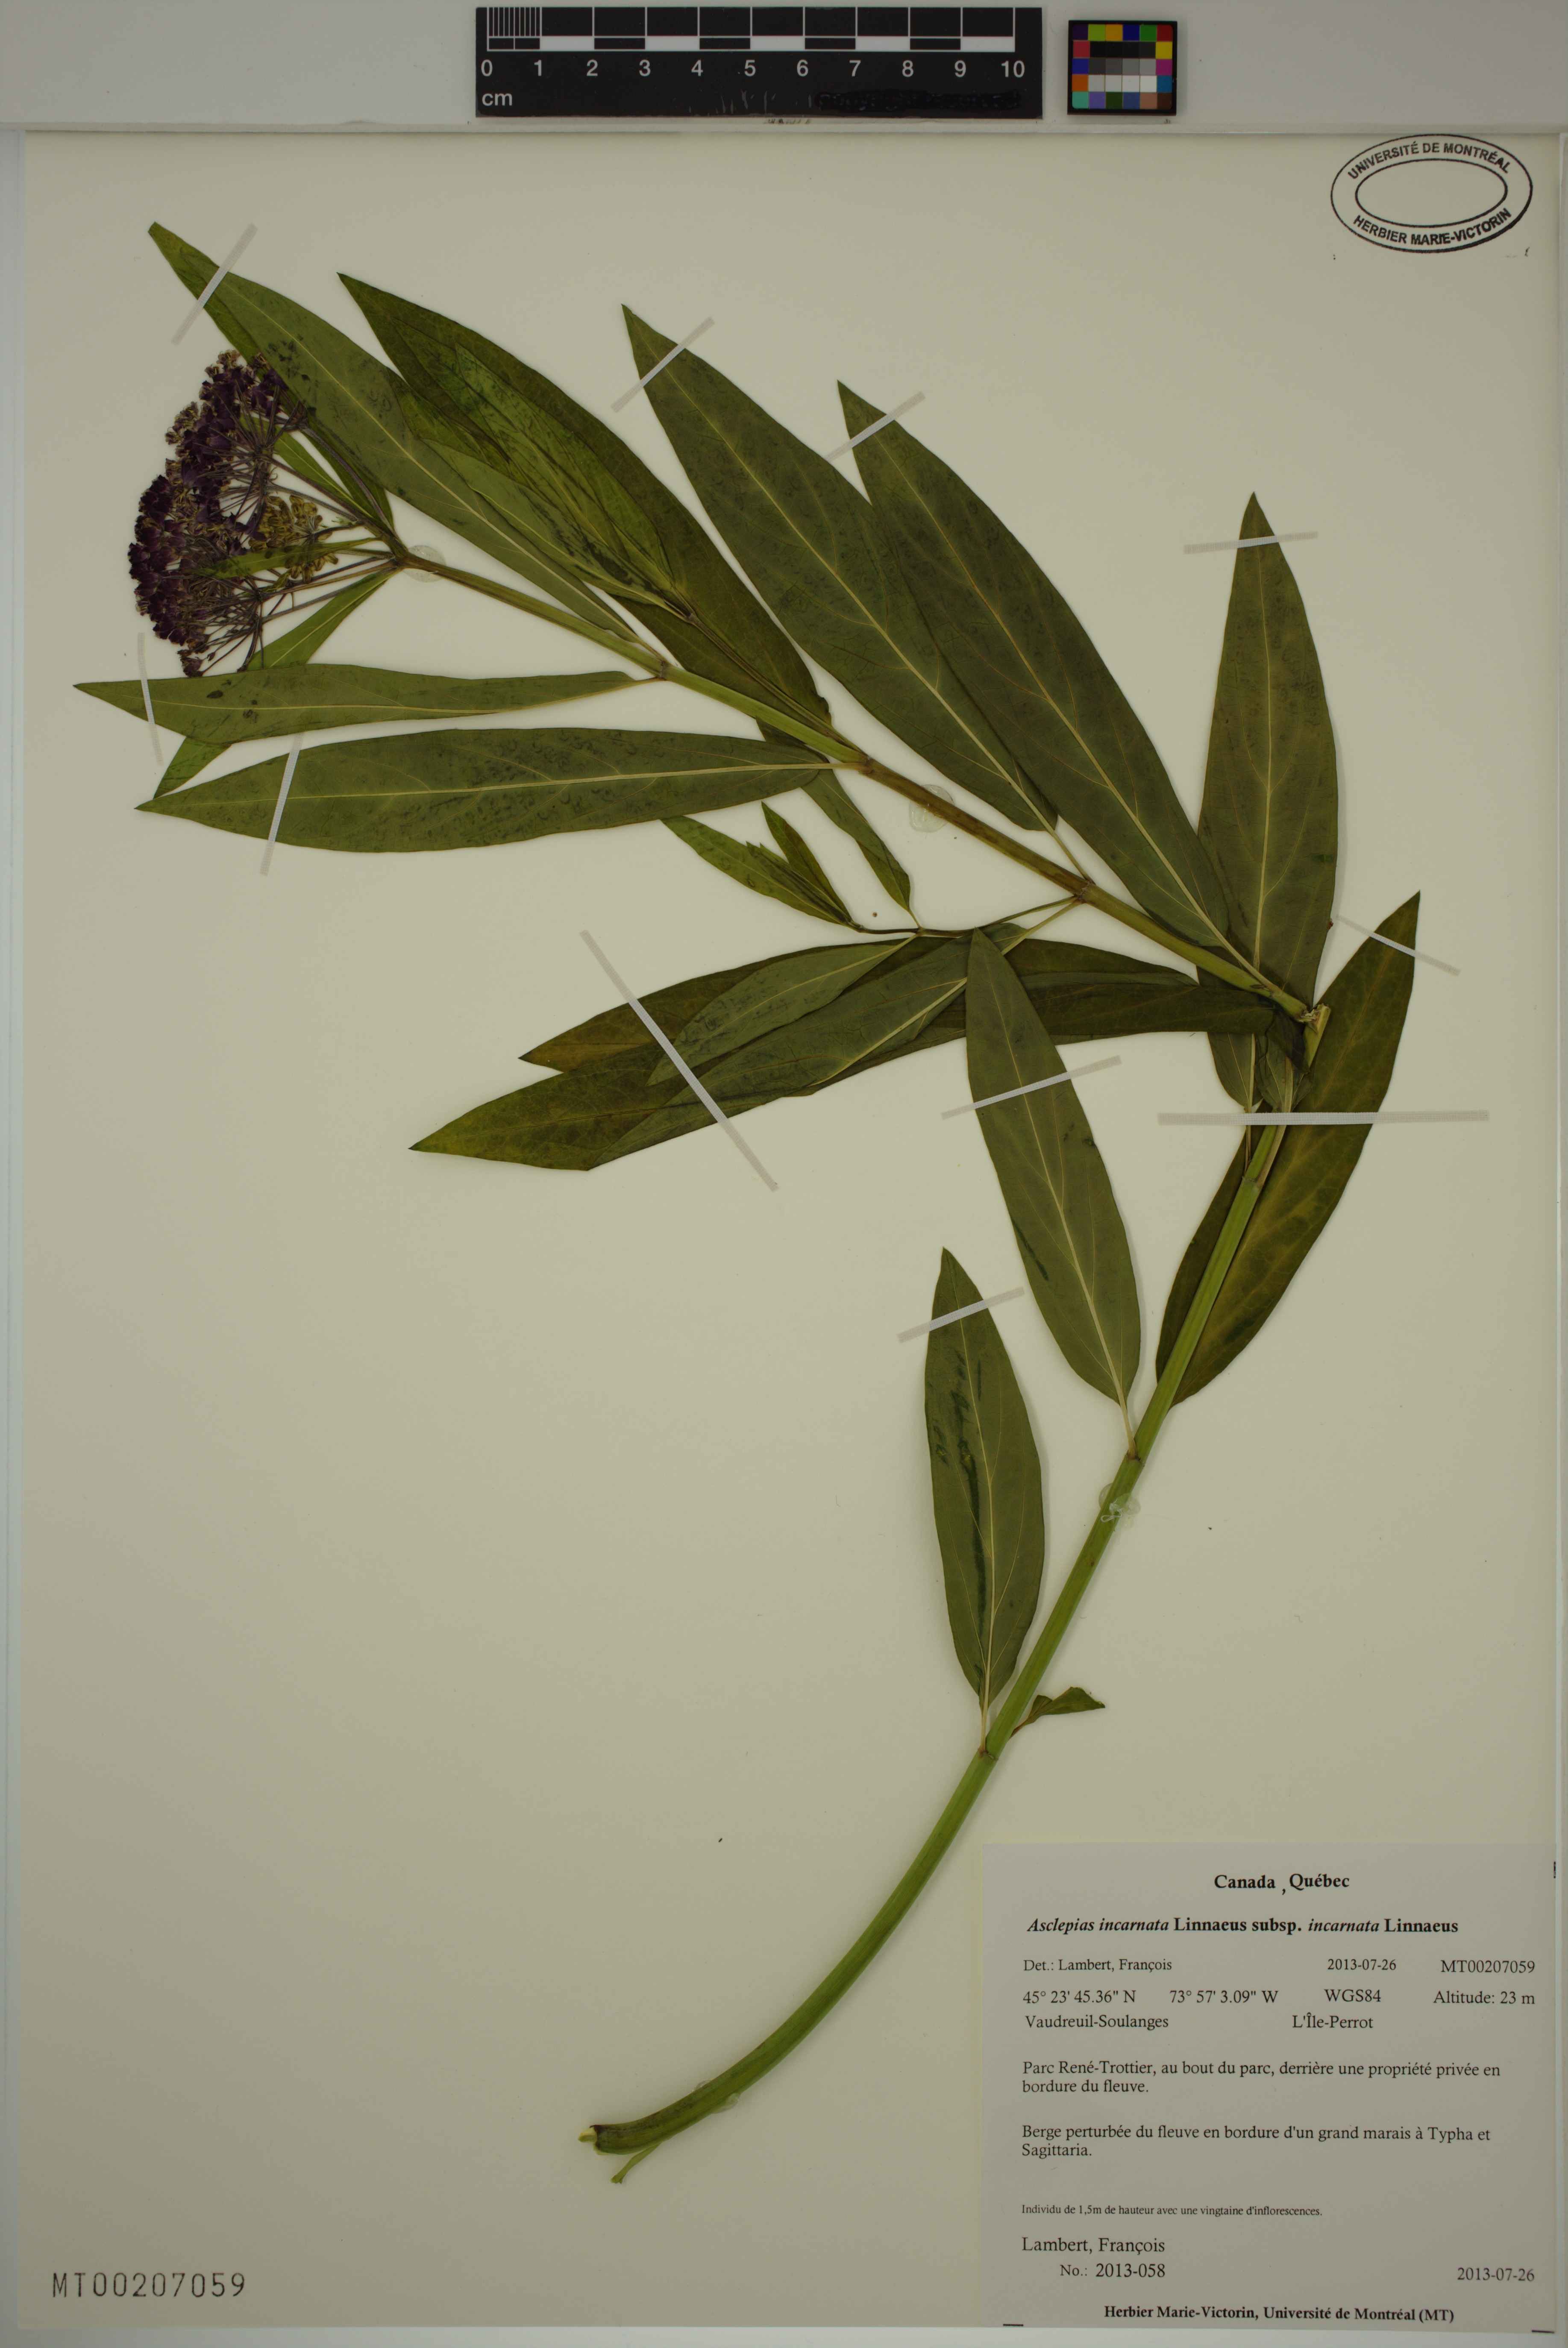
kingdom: Plantae
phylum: Tracheophyta
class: Magnoliopsida
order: Gentianales
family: Apocynaceae
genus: Asclepias
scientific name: Asclepias incarnata
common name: Swamp milkweed
